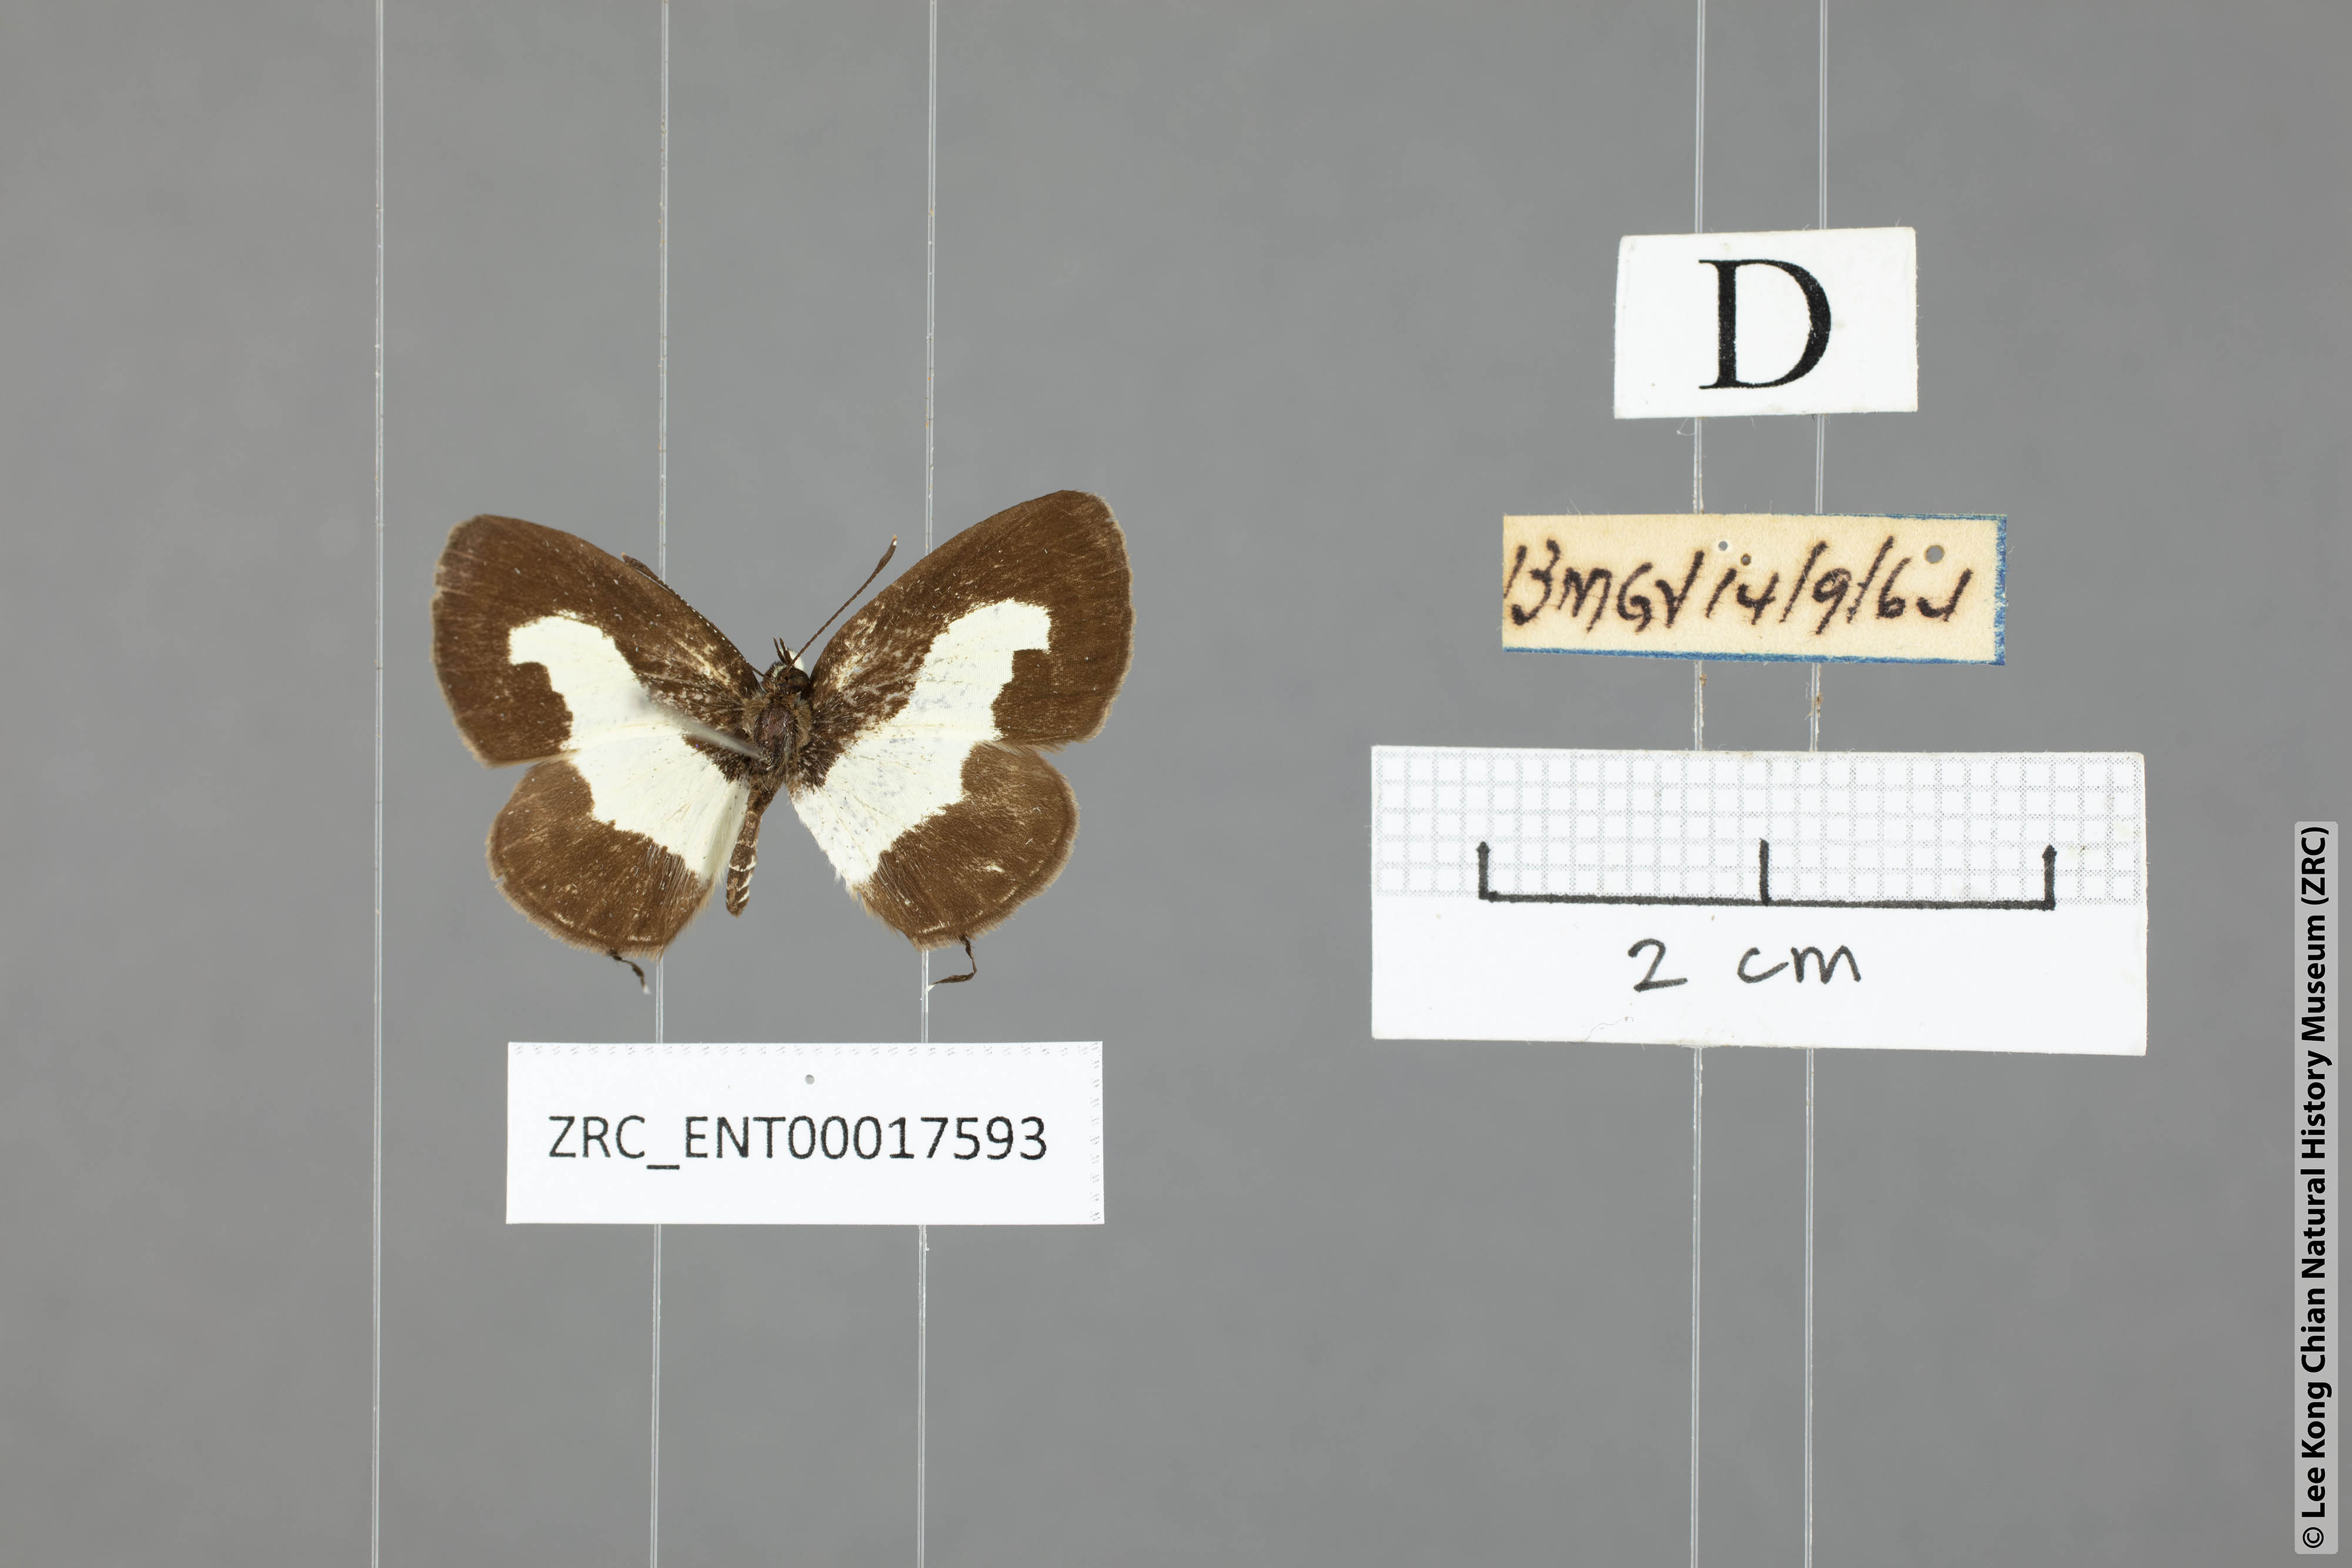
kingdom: Animalia
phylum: Arthropoda
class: Insecta
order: Lepidoptera
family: Lycaenidae
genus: Caleta
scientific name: Caleta roxus
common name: Straight pierrot
